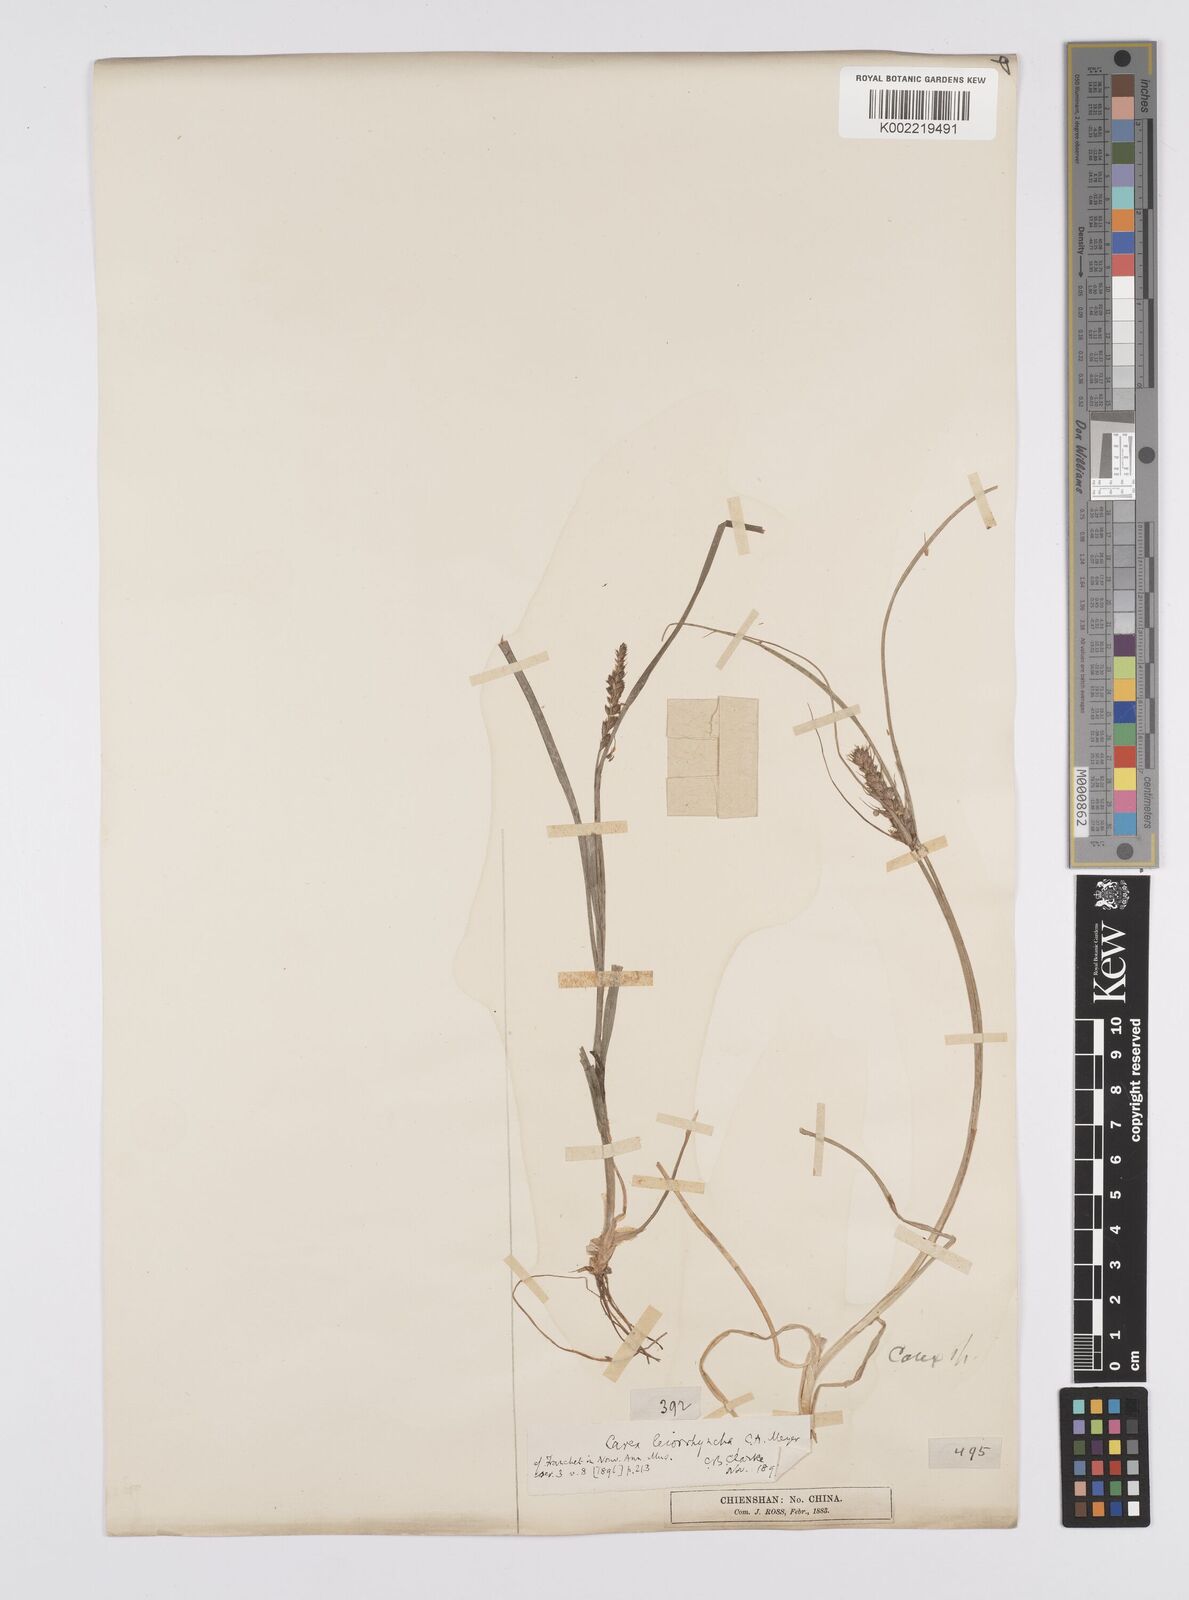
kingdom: Plantae
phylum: Tracheophyta
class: Liliopsida
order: Poales
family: Cyperaceae
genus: Carex
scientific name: Carex leiorhyncha
